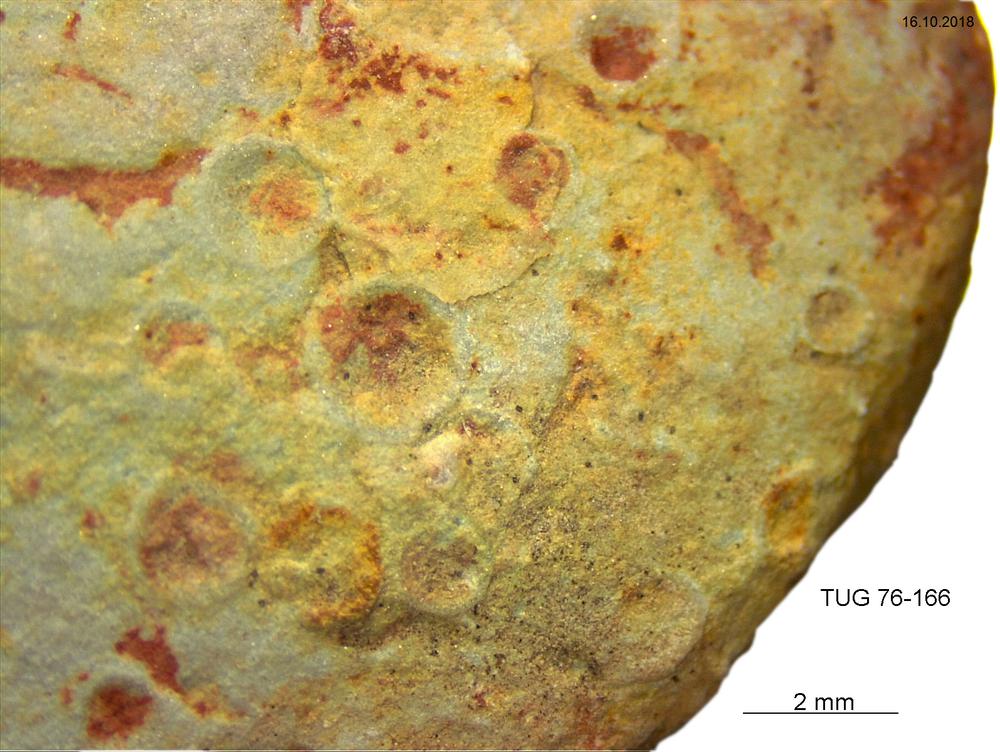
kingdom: Animalia
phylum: Brachiopoda
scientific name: Brachiopoda
